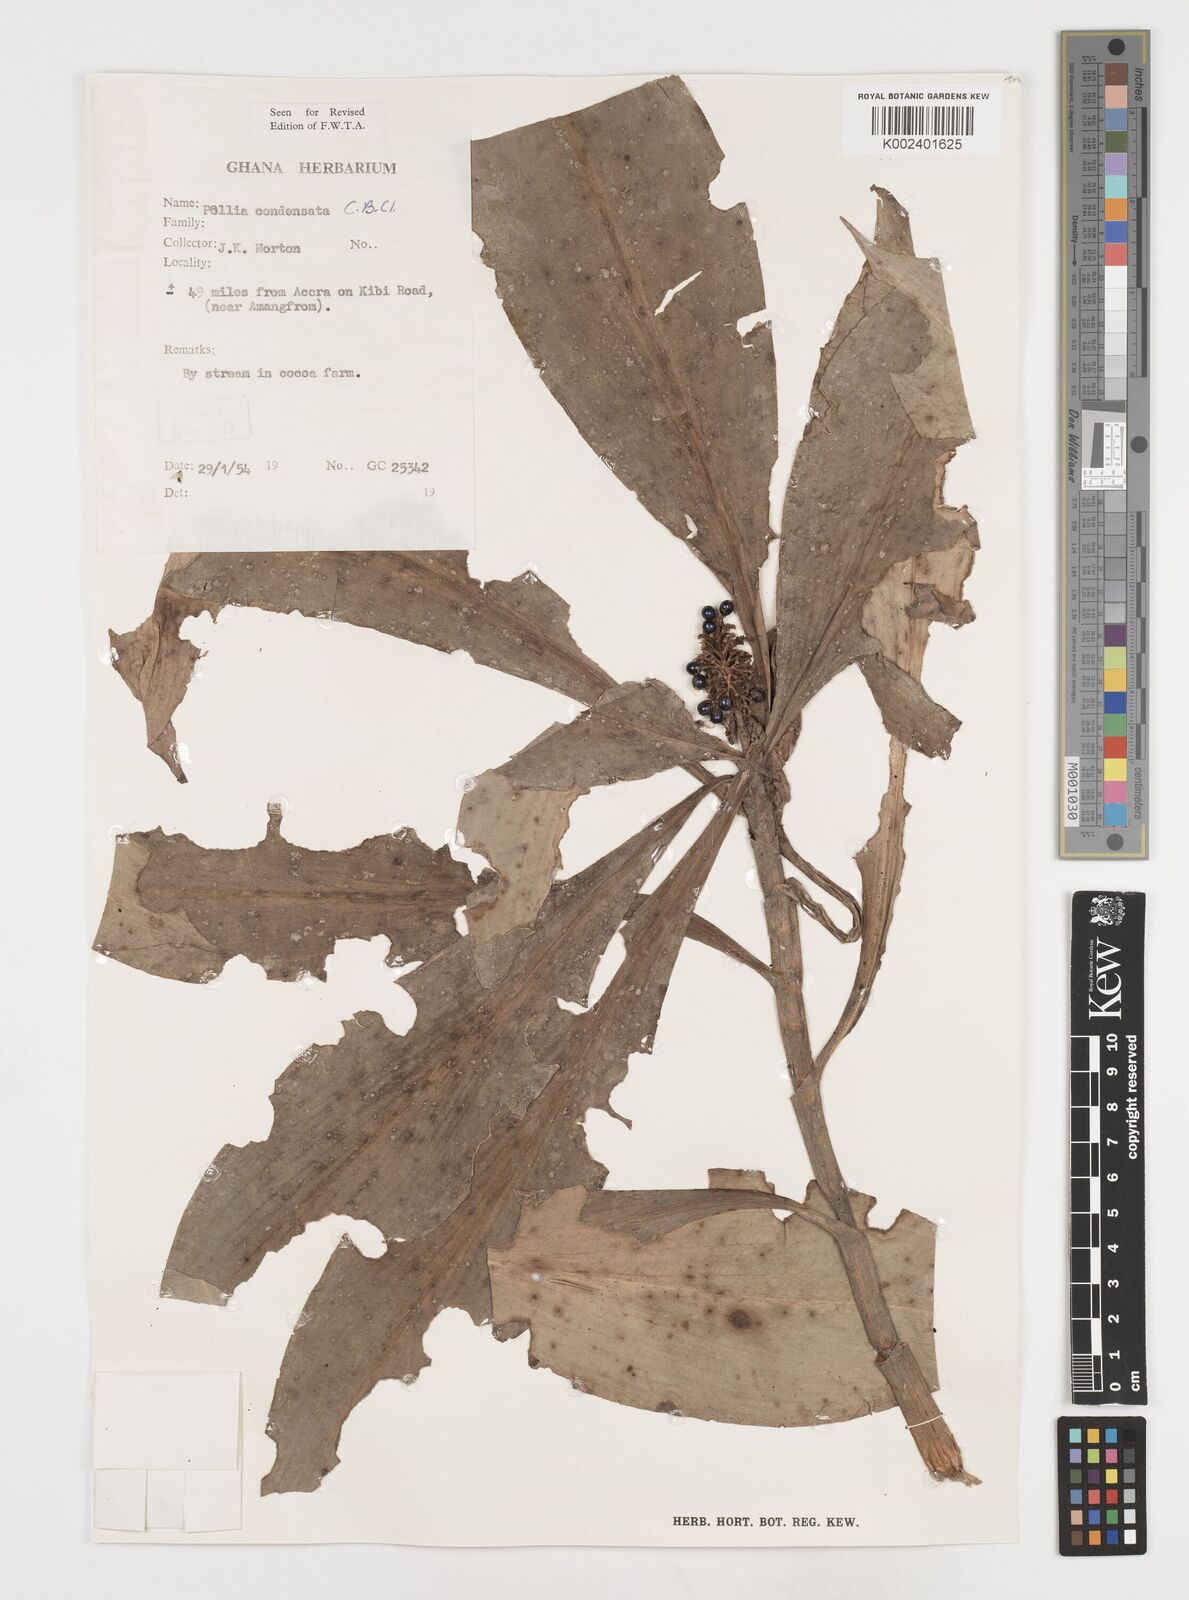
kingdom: Plantae
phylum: Tracheophyta
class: Liliopsida
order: Commelinales
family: Commelinaceae
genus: Pollia
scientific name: Pollia condensata
